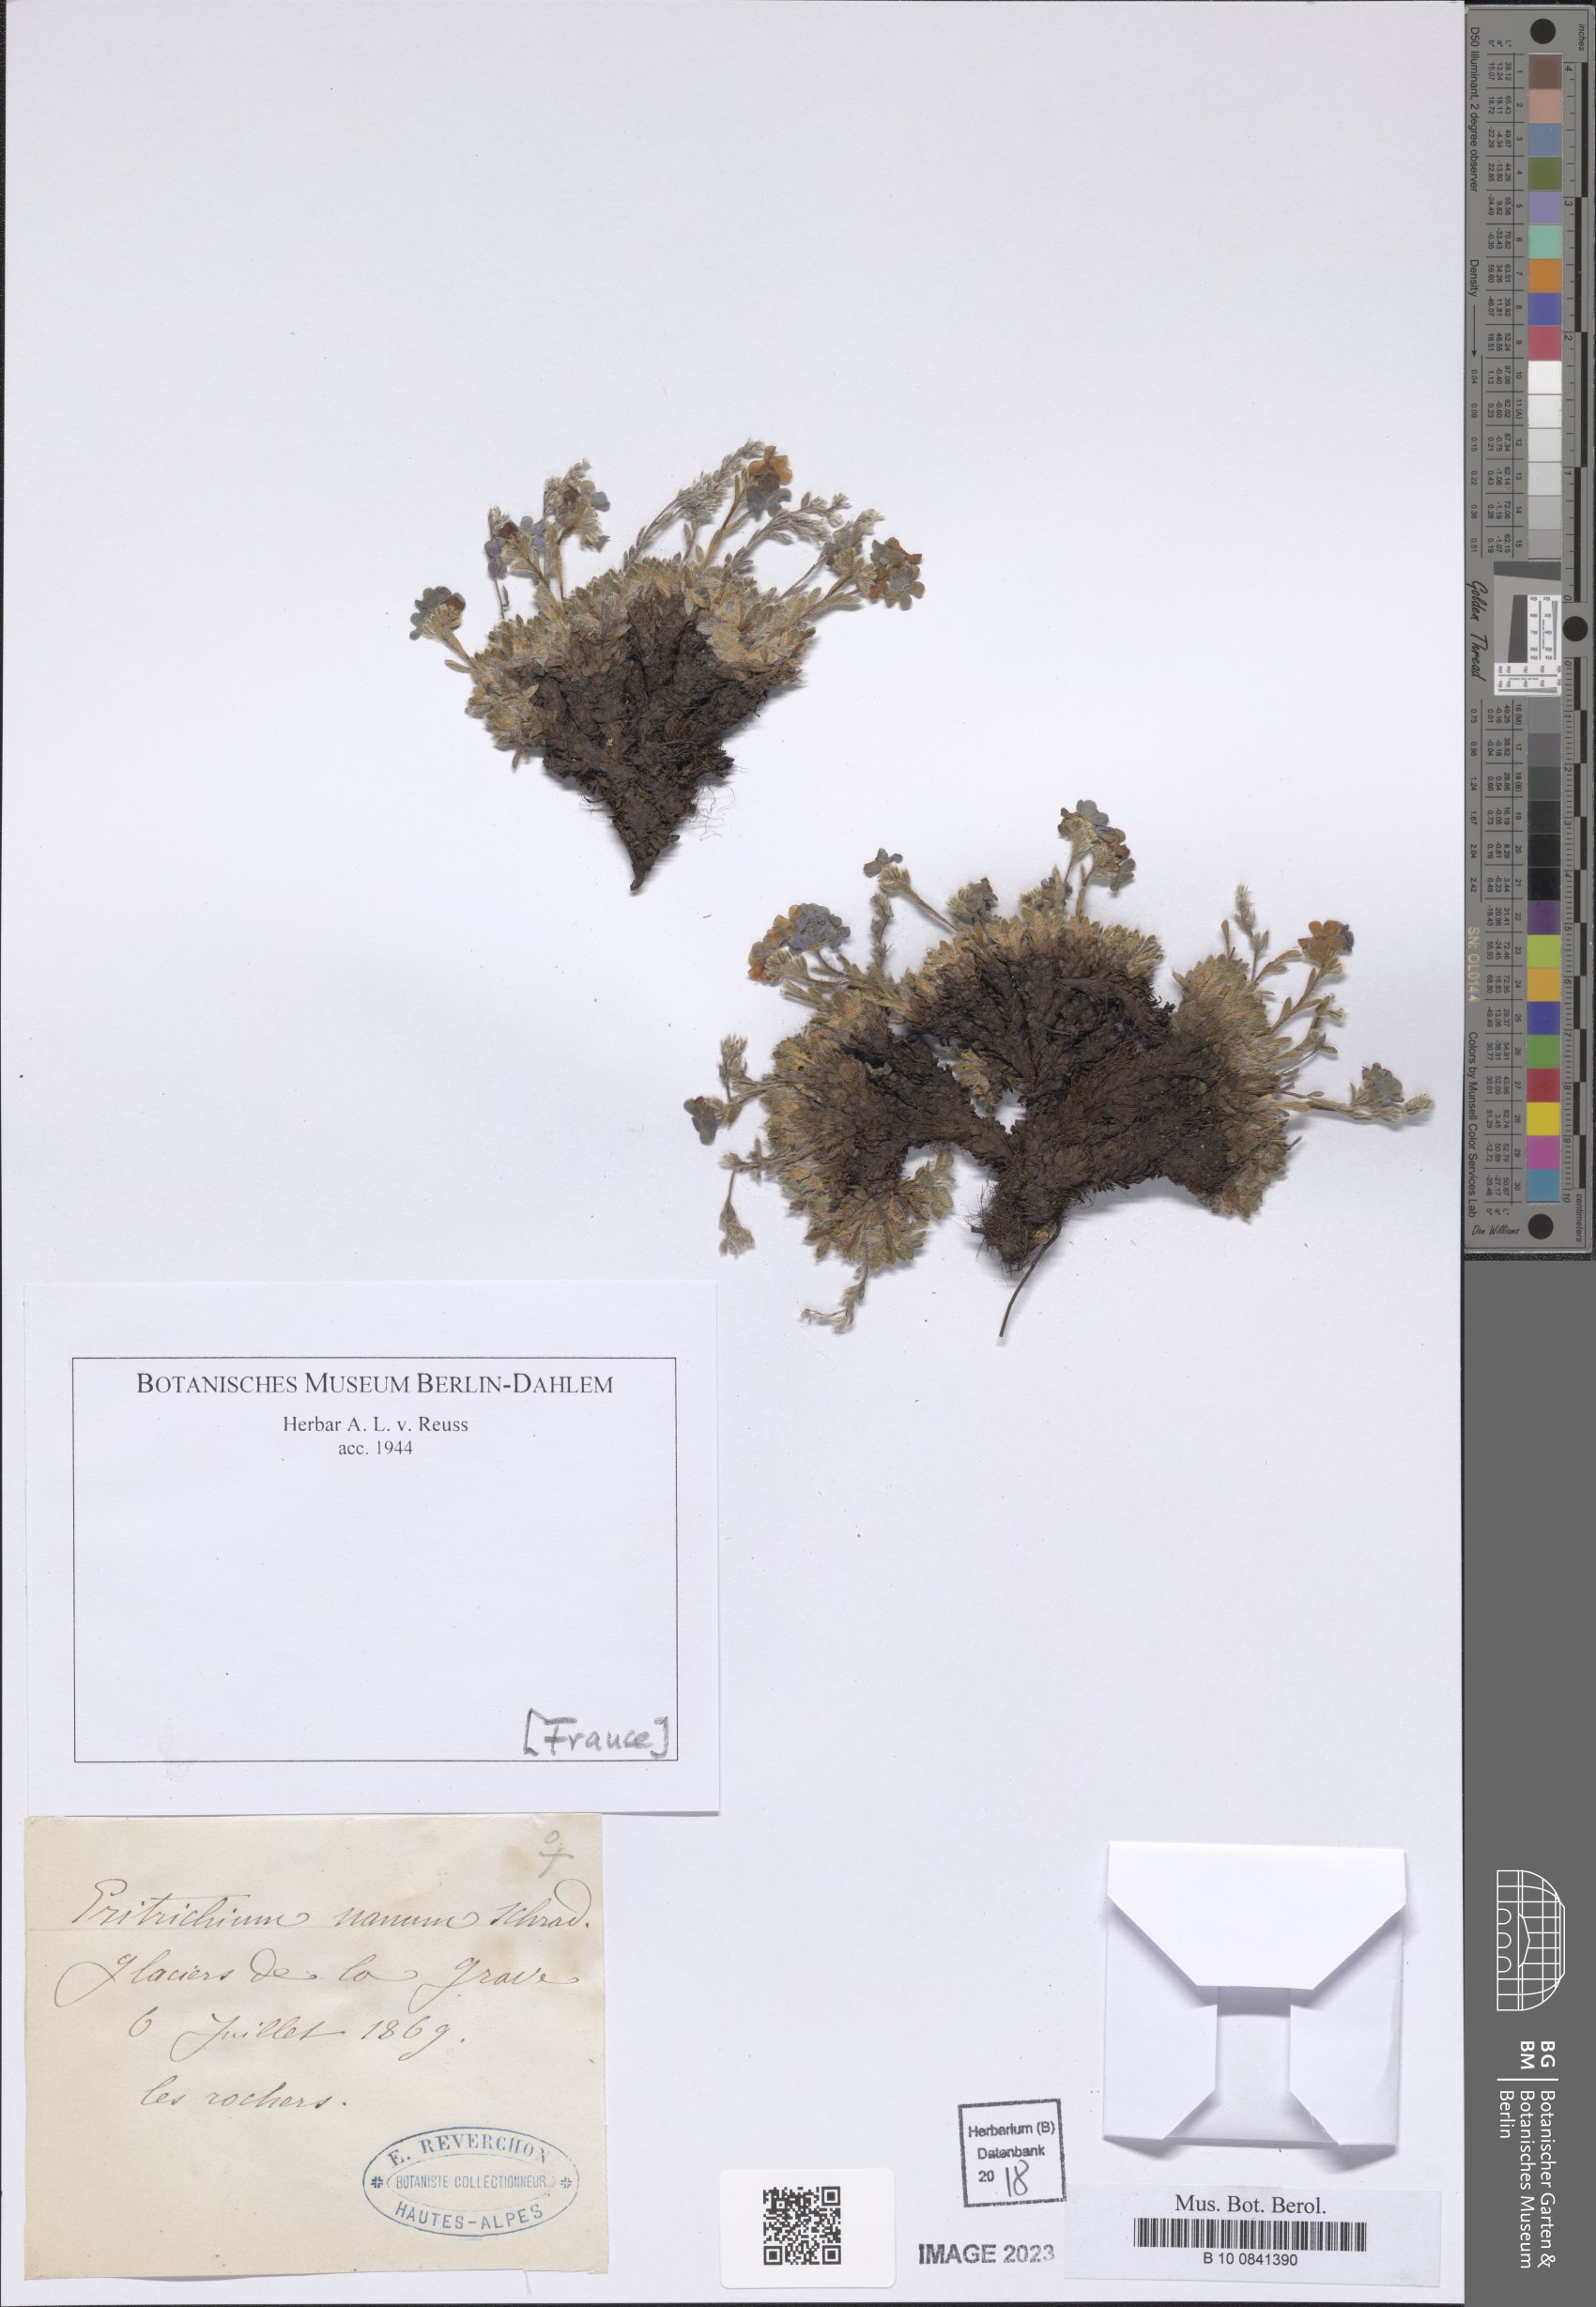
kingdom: Plantae
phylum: Tracheophyta
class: Magnoliopsida
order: Boraginales
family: Boraginaceae
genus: Eritrichium
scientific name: Eritrichium nanum
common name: King-of-the-alps
